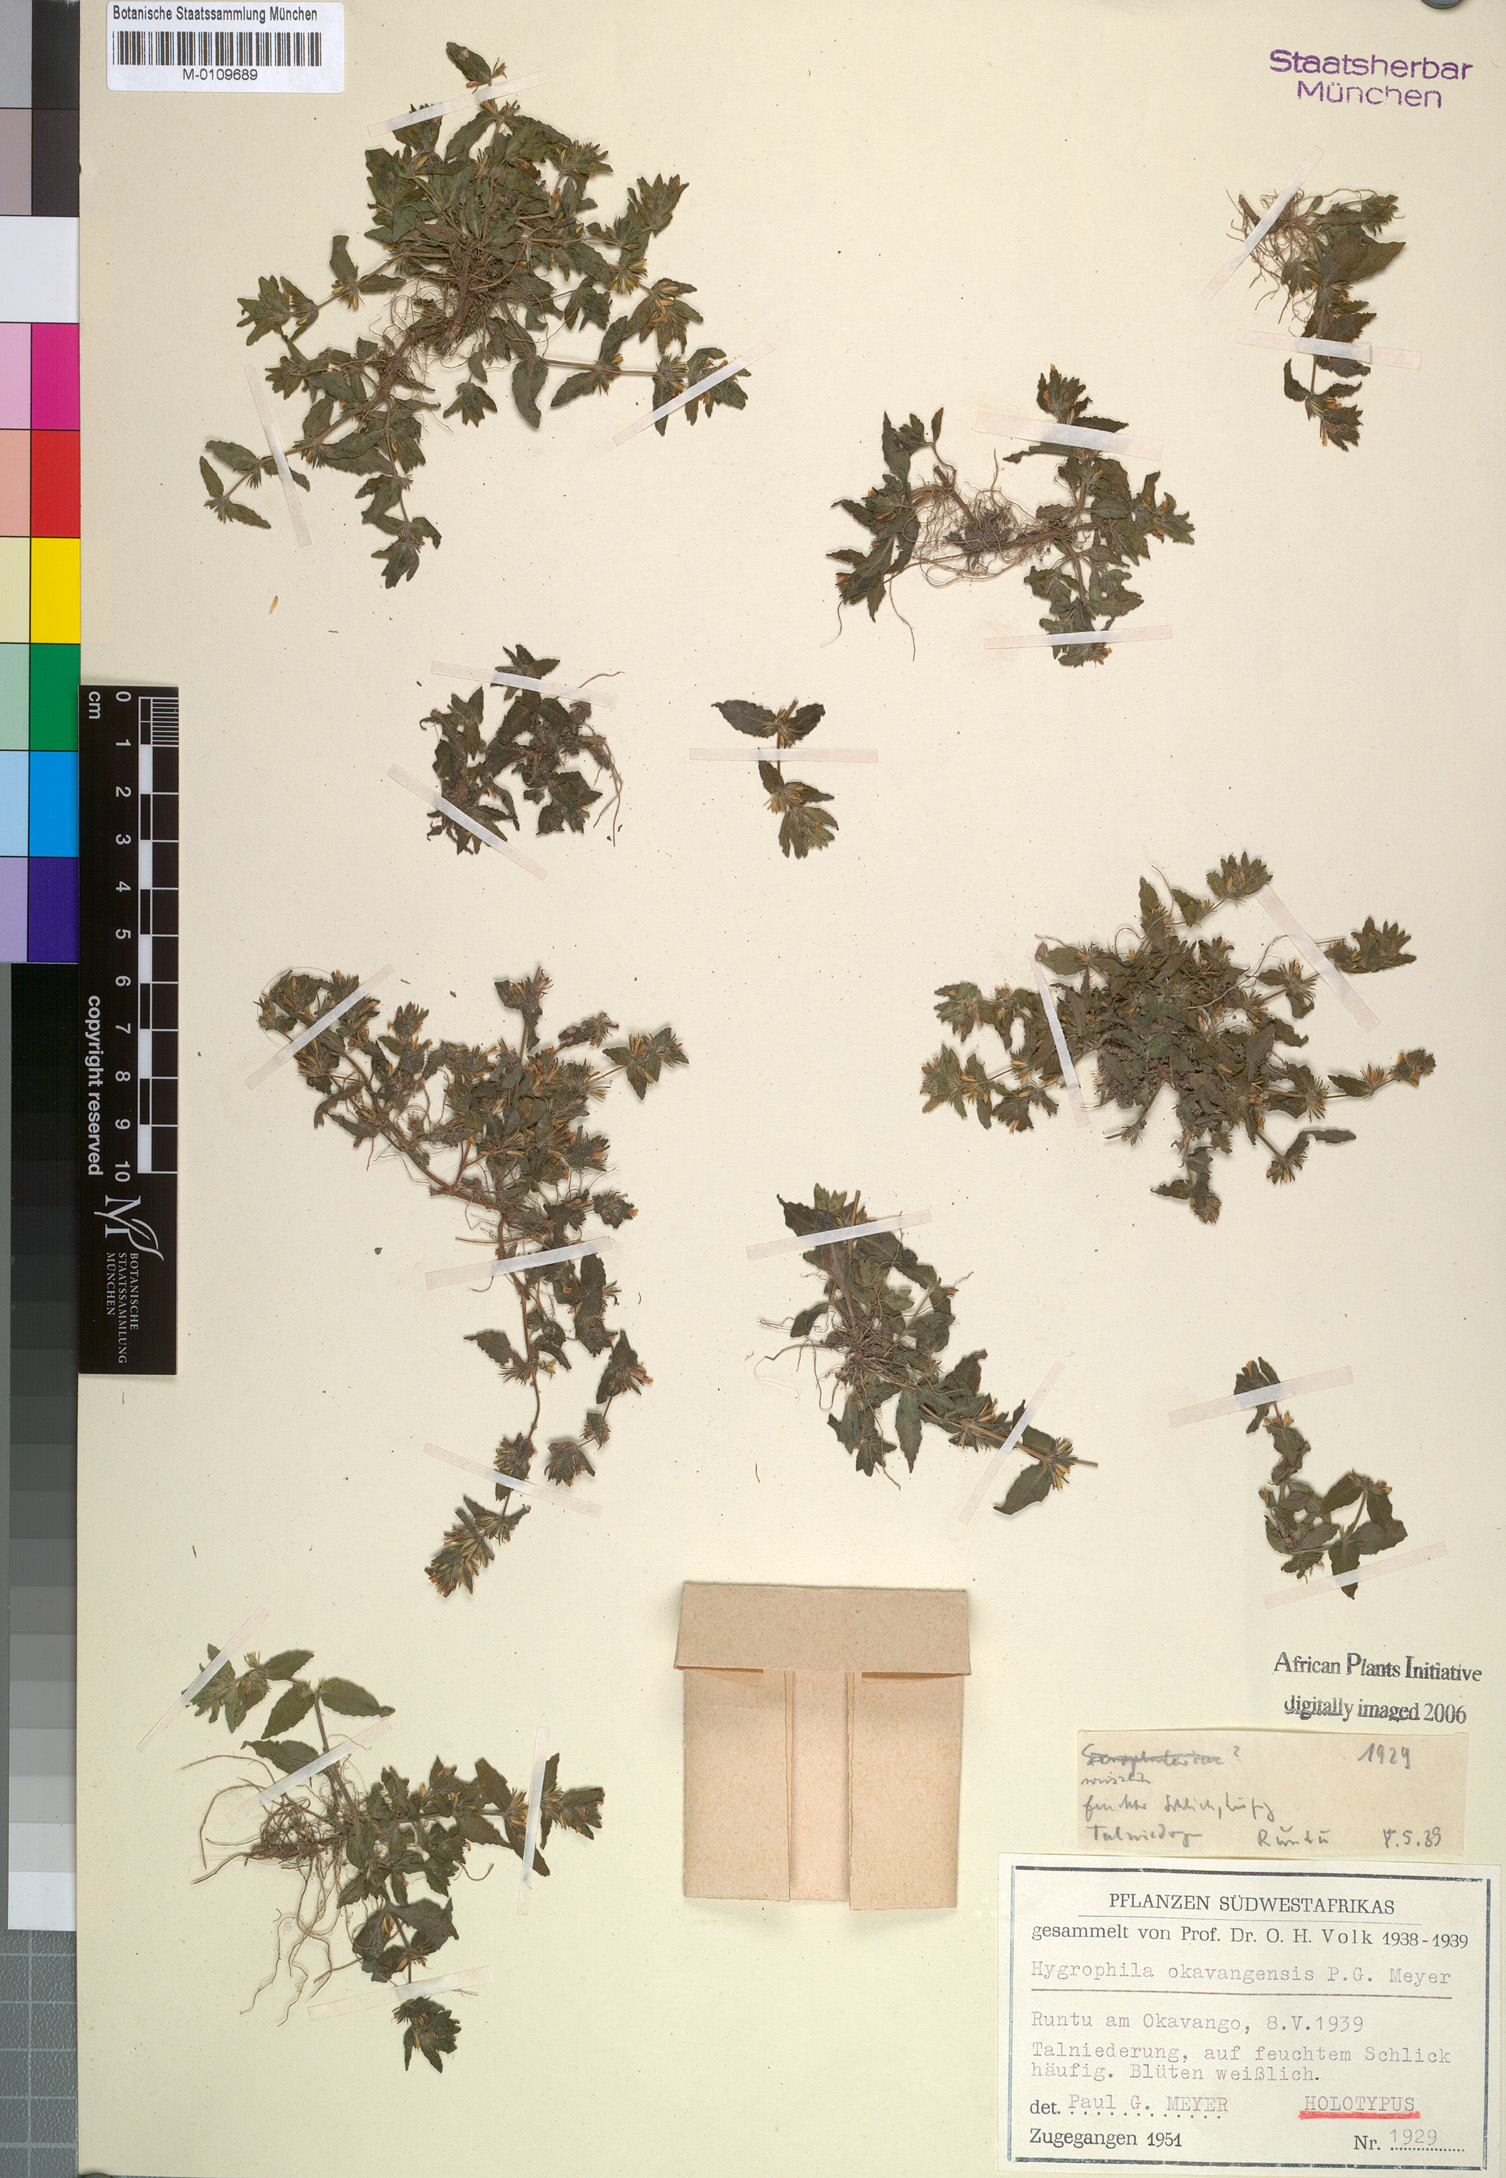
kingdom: Plantae
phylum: Tracheophyta
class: Magnoliopsida
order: Lamiales
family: Acanthaceae
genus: Hygrophila
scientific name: Hygrophila caerulea
